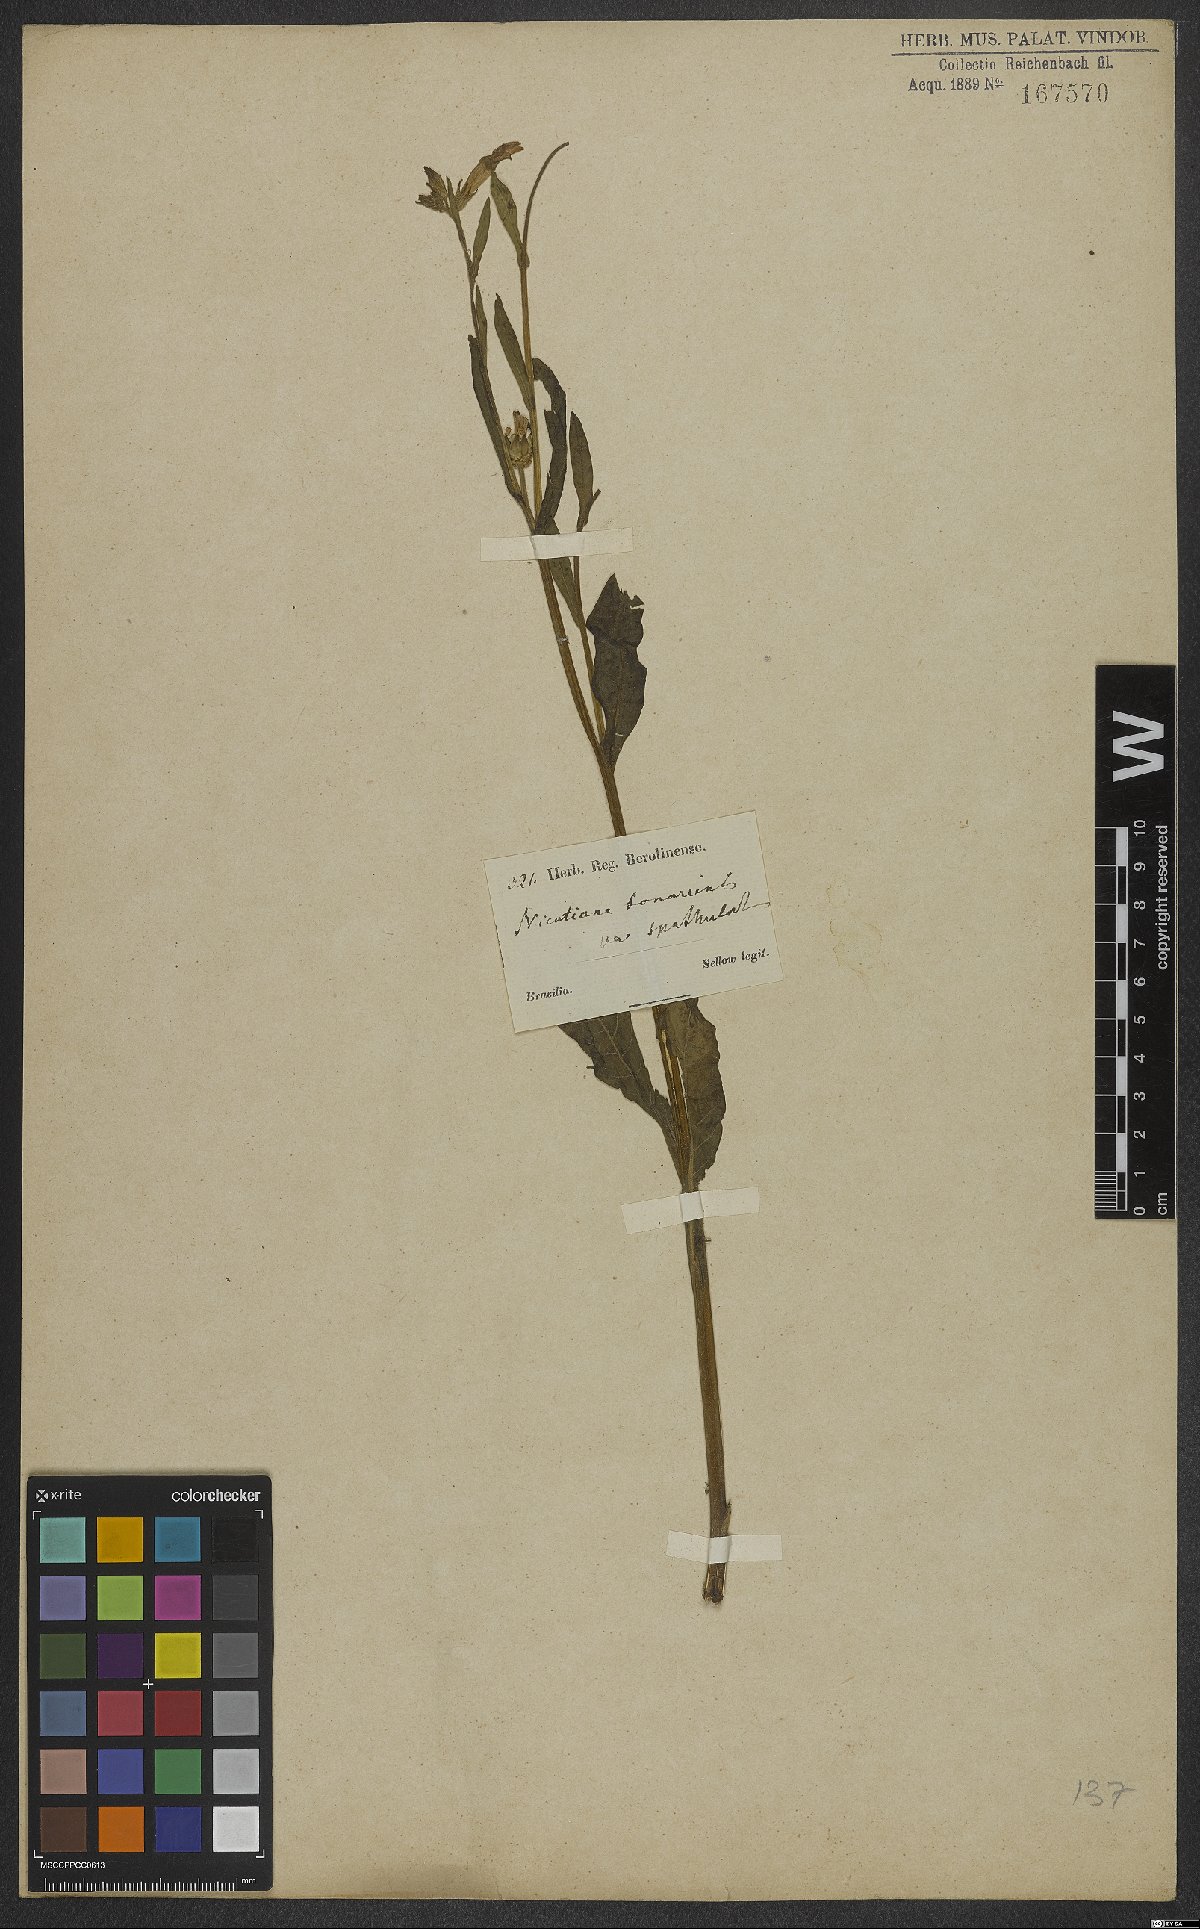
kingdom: Plantae
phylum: Tracheophyta
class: Magnoliopsida
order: Solanales
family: Solanaceae
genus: Nicotiana
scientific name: Nicotiana bonariensis
